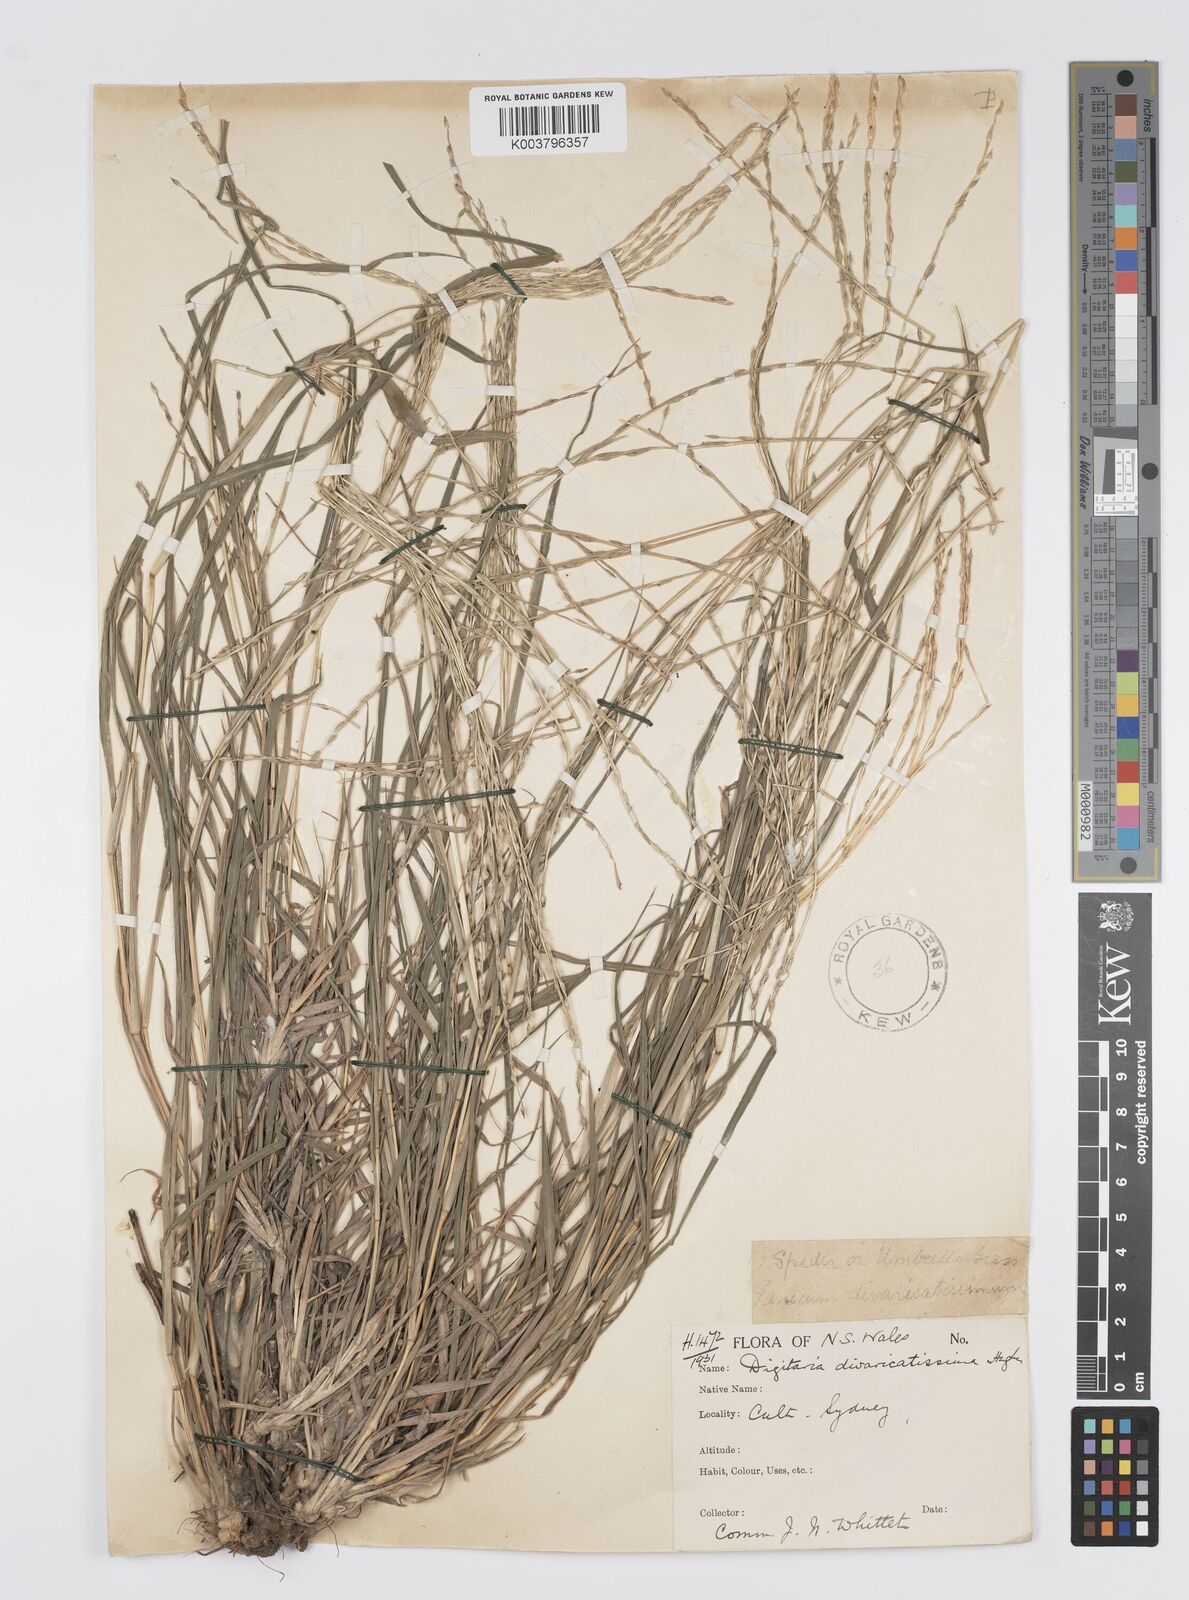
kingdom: Plantae
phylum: Tracheophyta
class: Liliopsida
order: Poales
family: Poaceae
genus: Digitaria
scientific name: Digitaria divaricatissima
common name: Crabgrass
